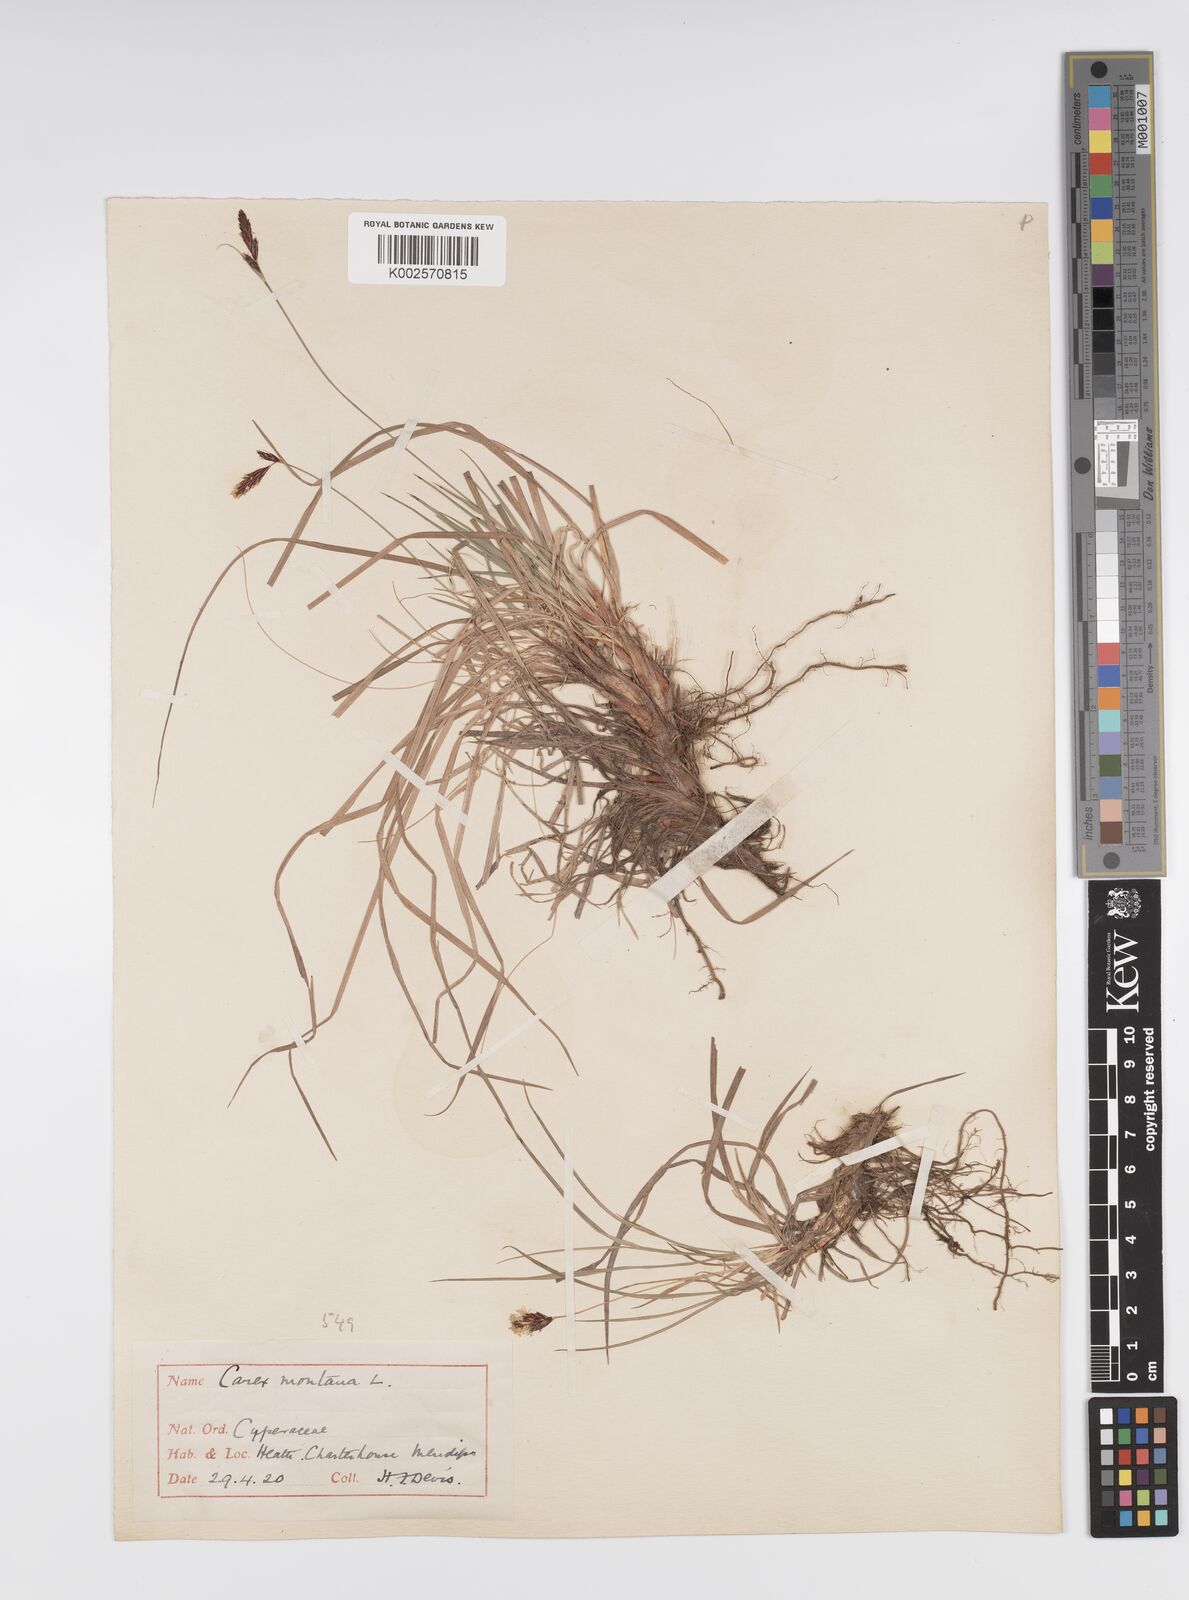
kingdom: Plantae
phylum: Tracheophyta
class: Liliopsida
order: Poales
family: Cyperaceae
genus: Carex
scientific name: Carex montana
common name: Soft-leaved sedge
